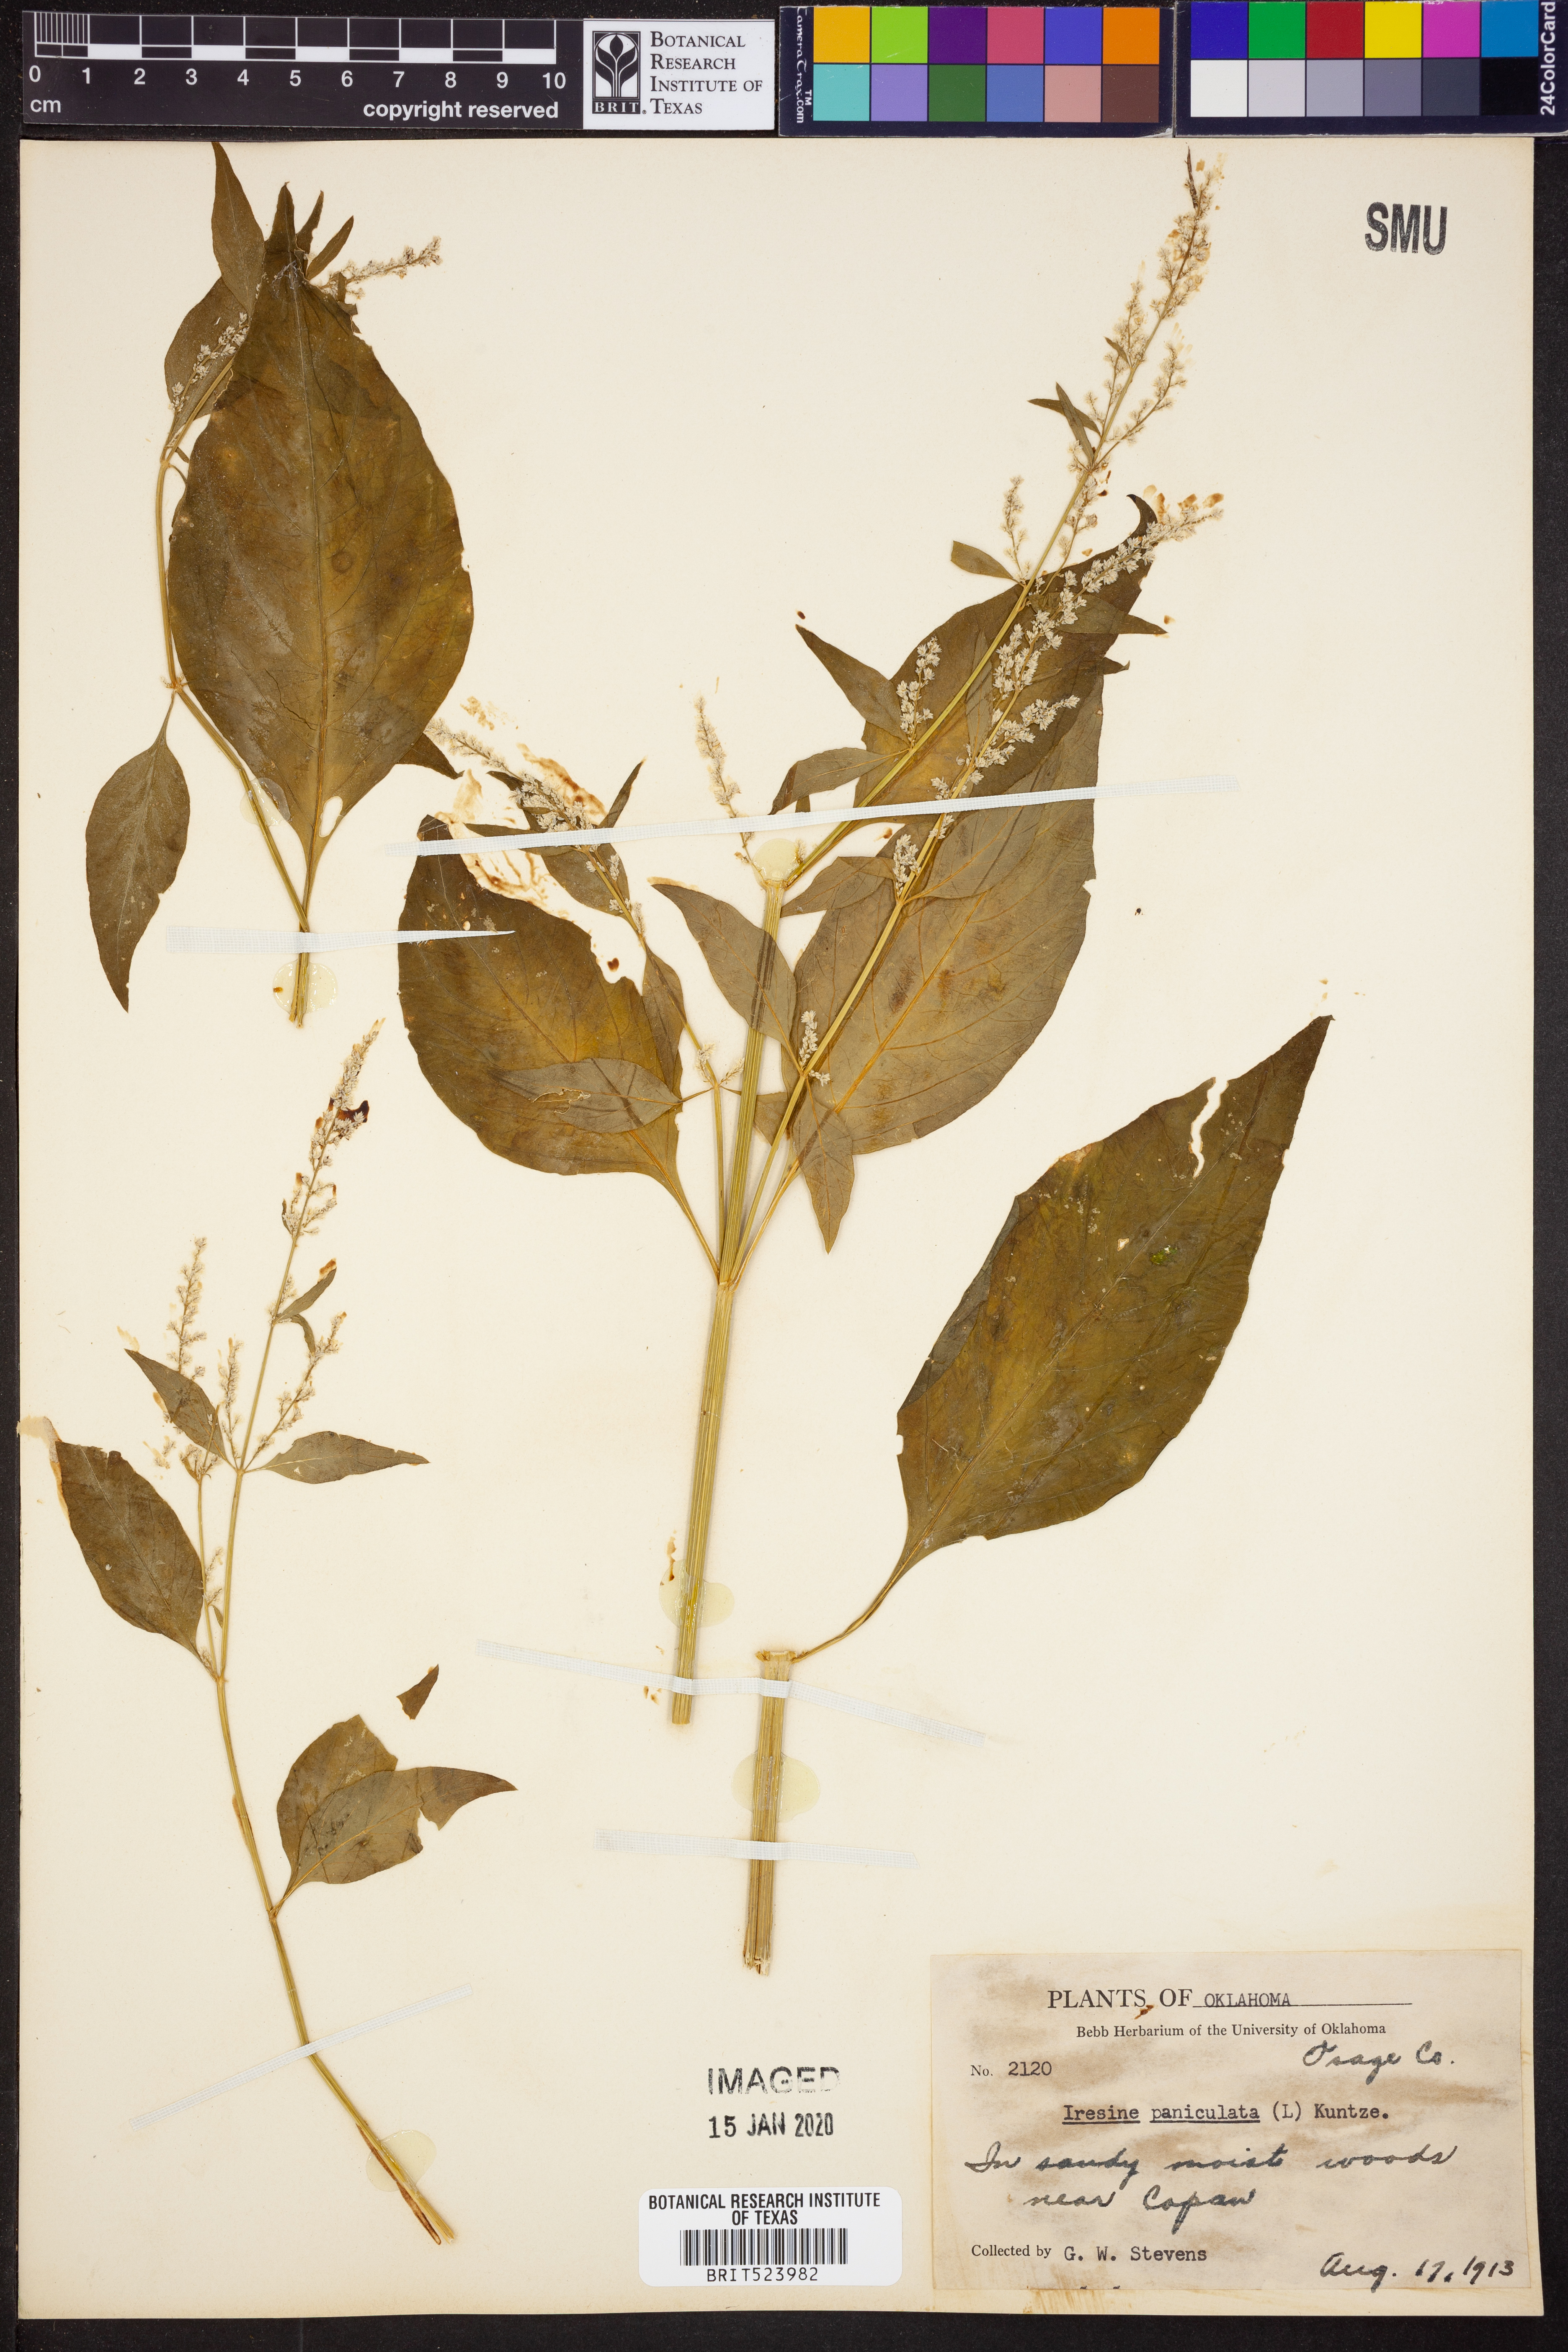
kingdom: Plantae
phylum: Tracheophyta
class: Magnoliopsida
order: Caryophyllales
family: Amaranthaceae
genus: Iresine
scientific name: Iresine angustifolia
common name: White snowplant
